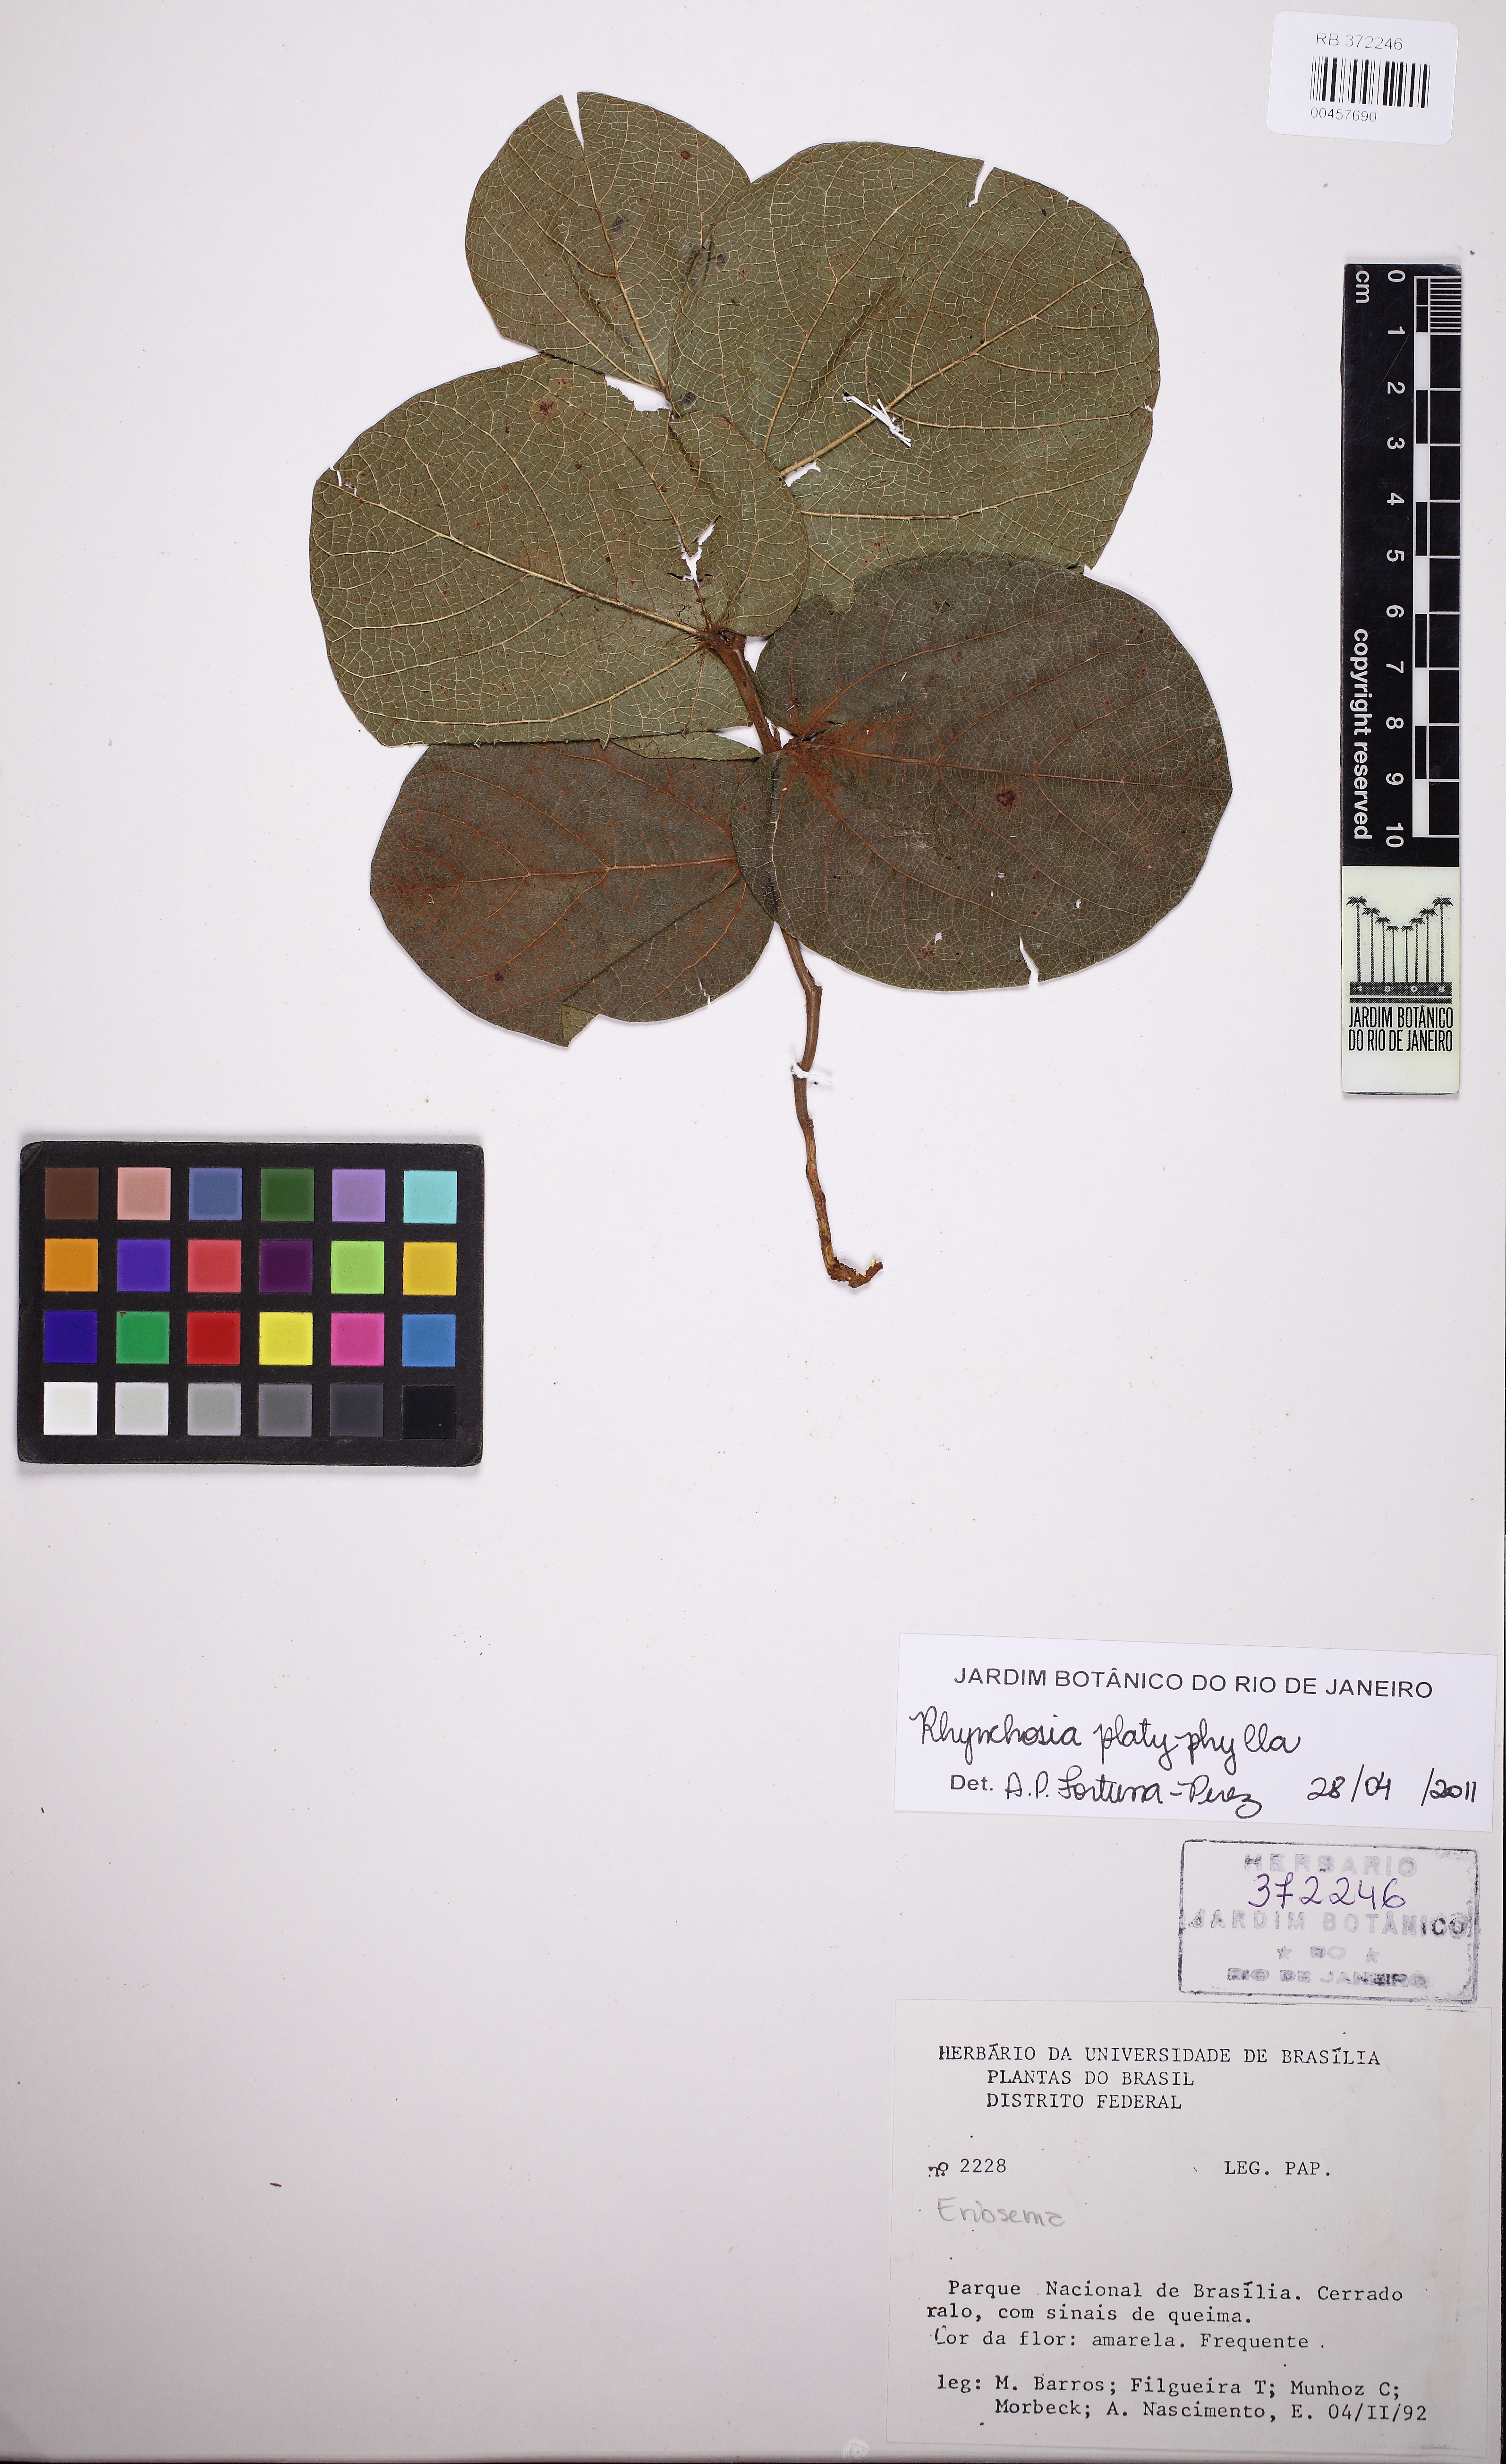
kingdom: Plantae
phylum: Tracheophyta
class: Magnoliopsida
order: Fabales
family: Fabaceae
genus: Rhynchosia
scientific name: Rhynchosia platyphylla
